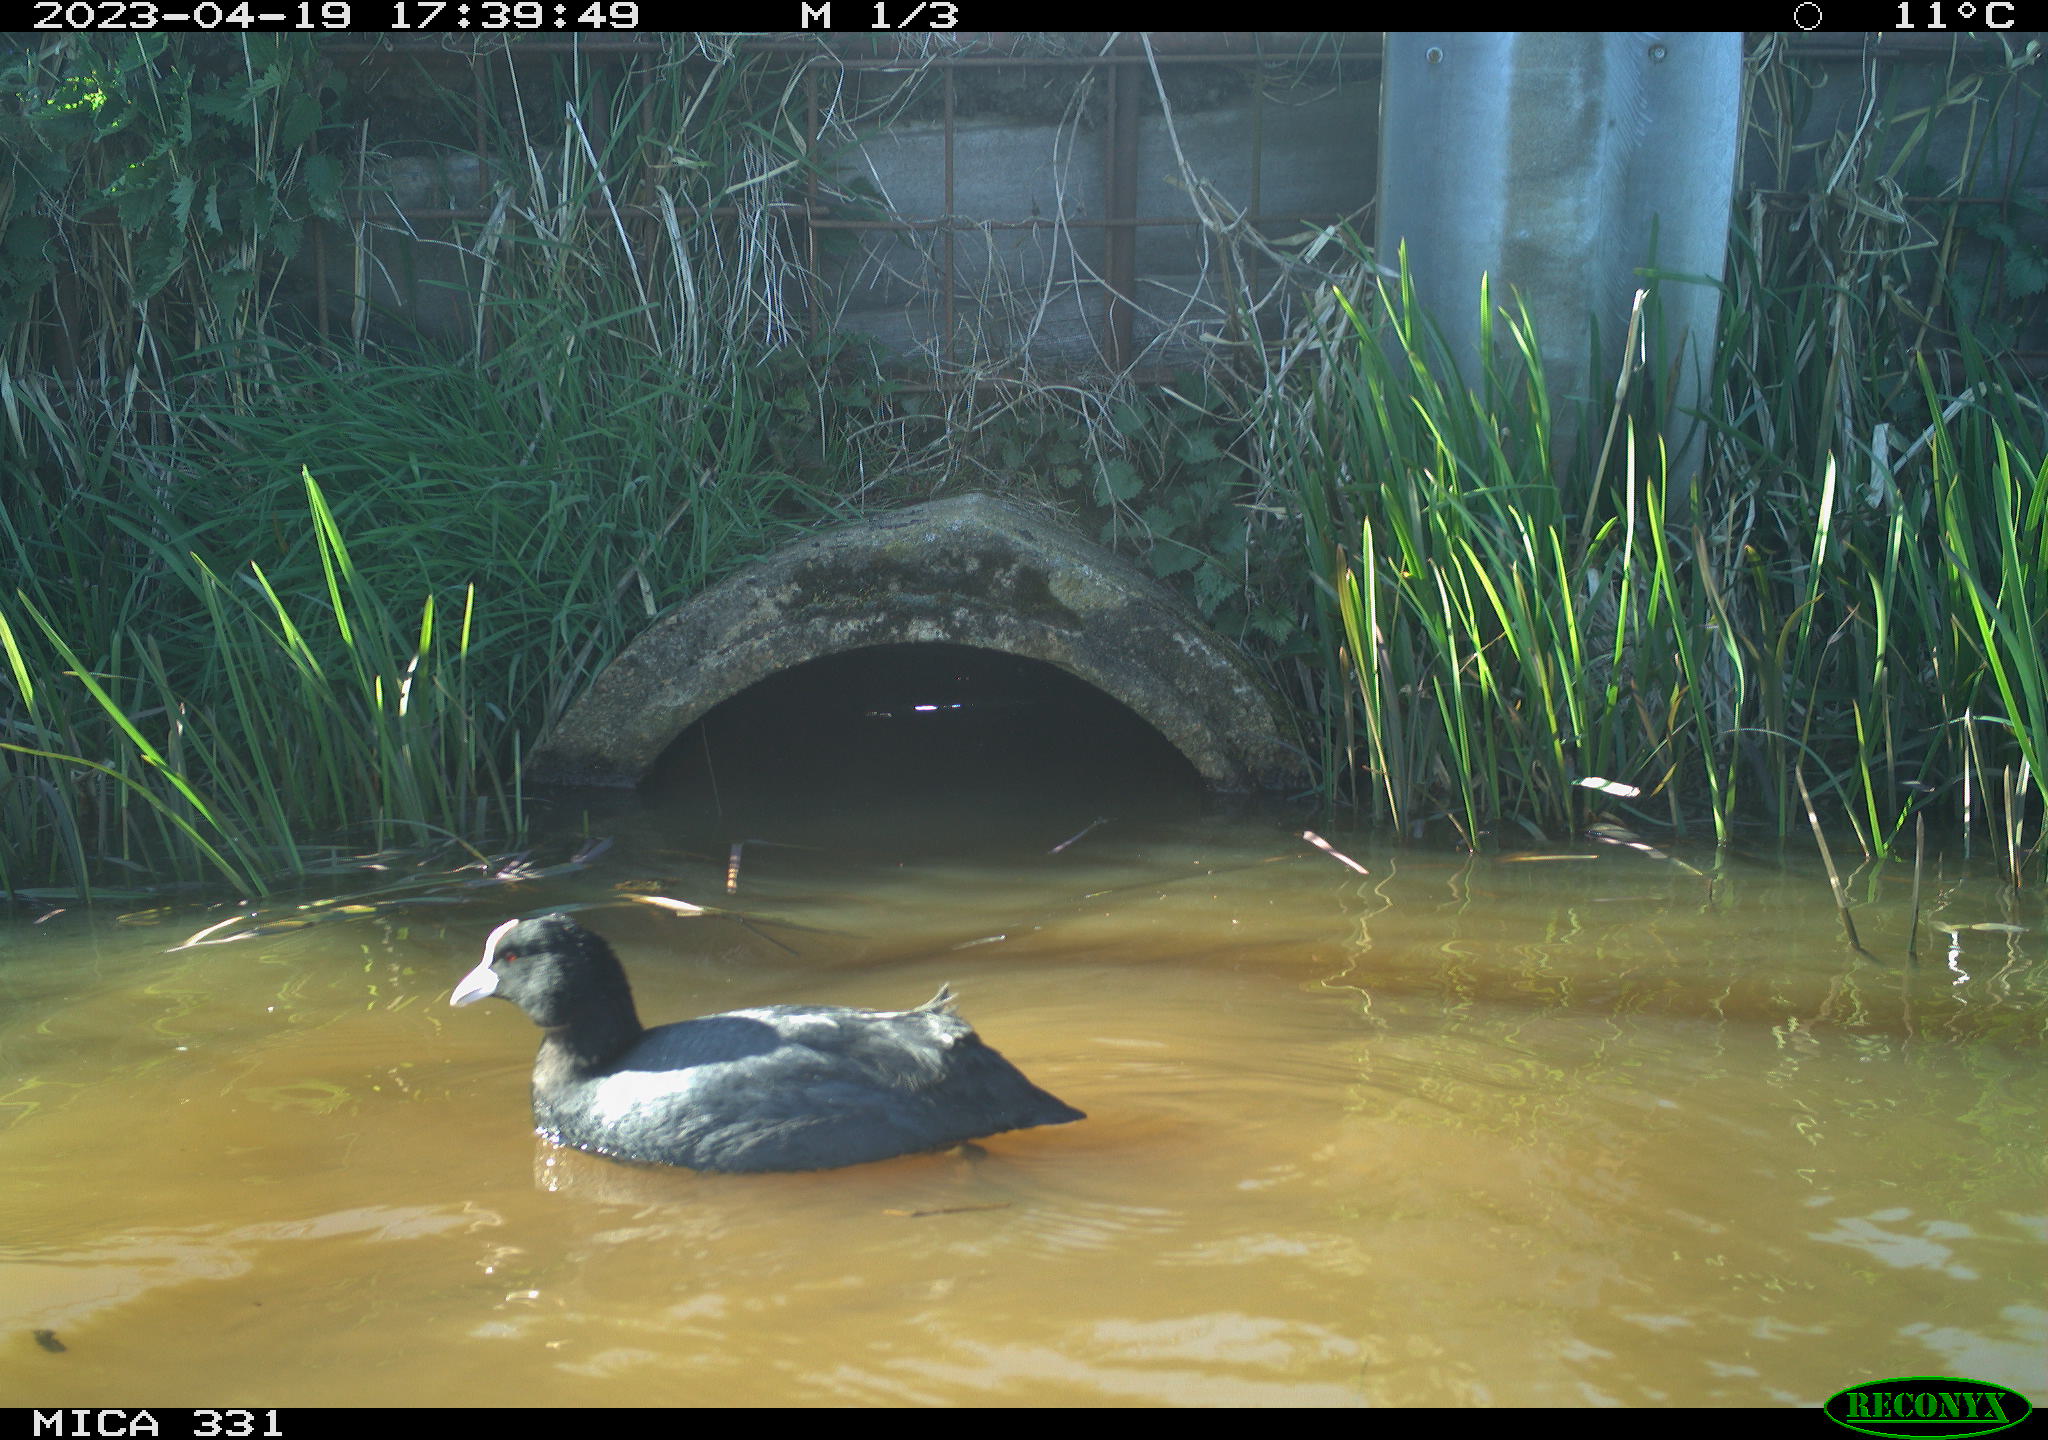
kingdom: Animalia
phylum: Chordata
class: Aves
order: Gruiformes
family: Rallidae
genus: Gallinula
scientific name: Gallinula chloropus
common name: Common moorhen
